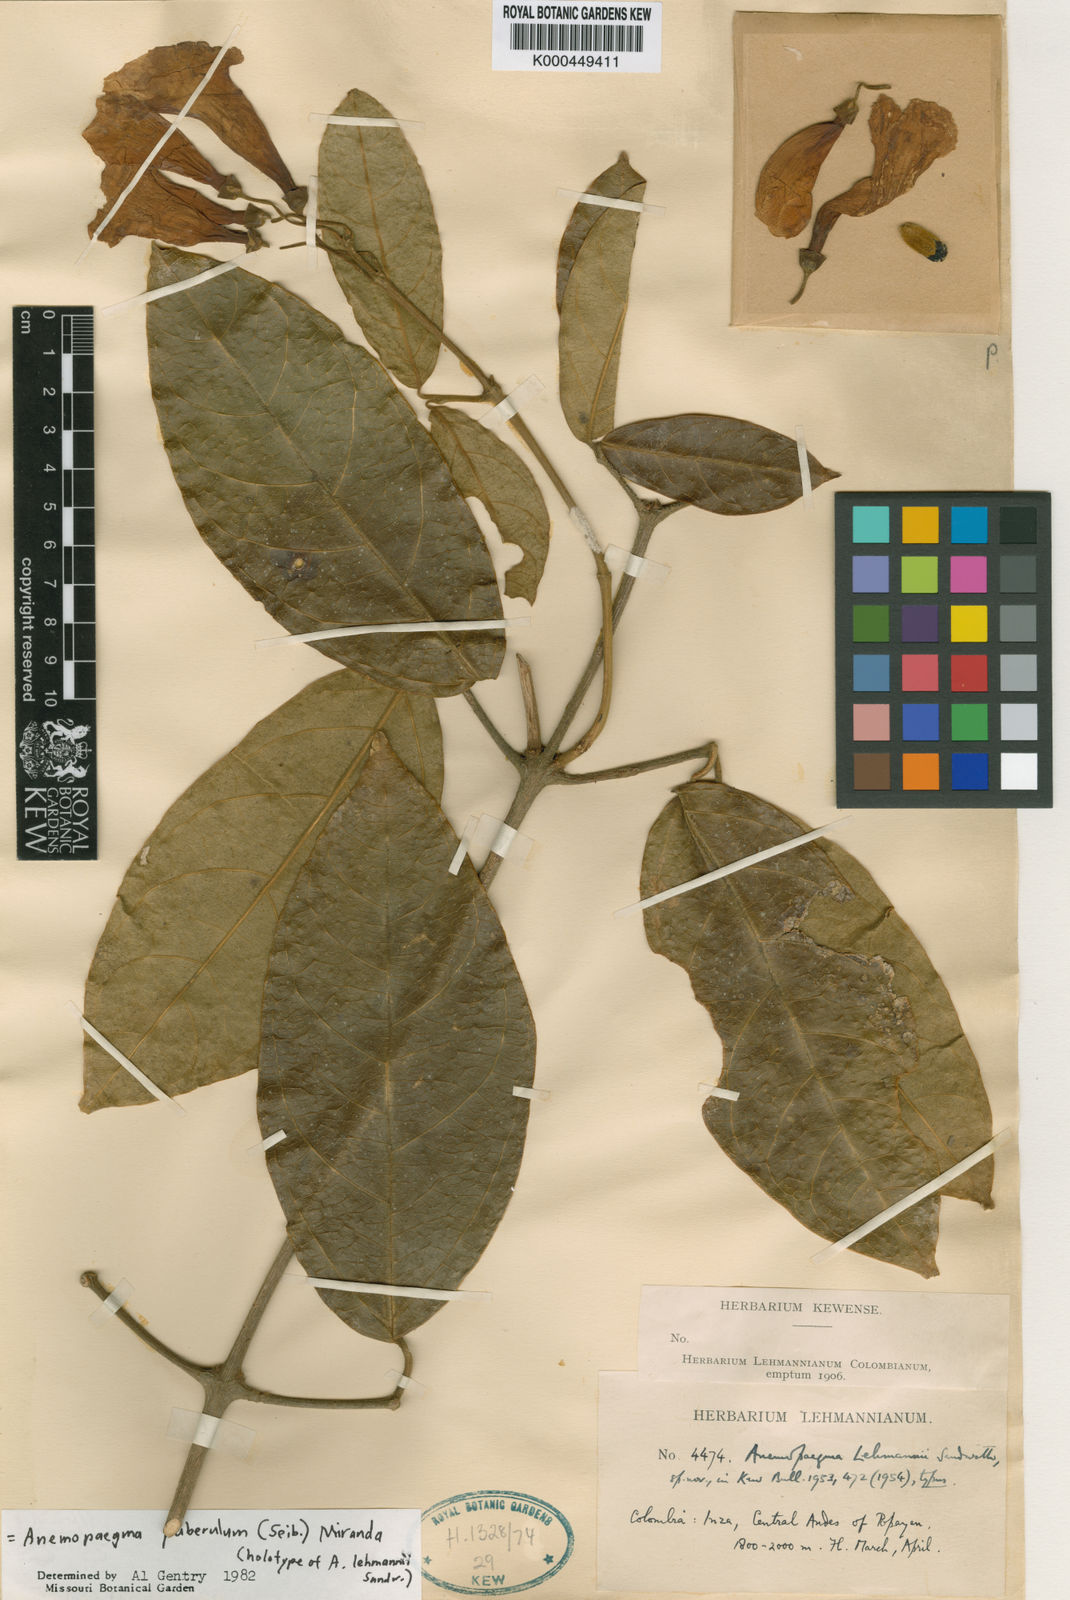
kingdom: Plantae
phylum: Tracheophyta
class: Magnoliopsida
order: Lamiales
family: Bignoniaceae
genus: Anemopaegma
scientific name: Anemopaegma puberulum
